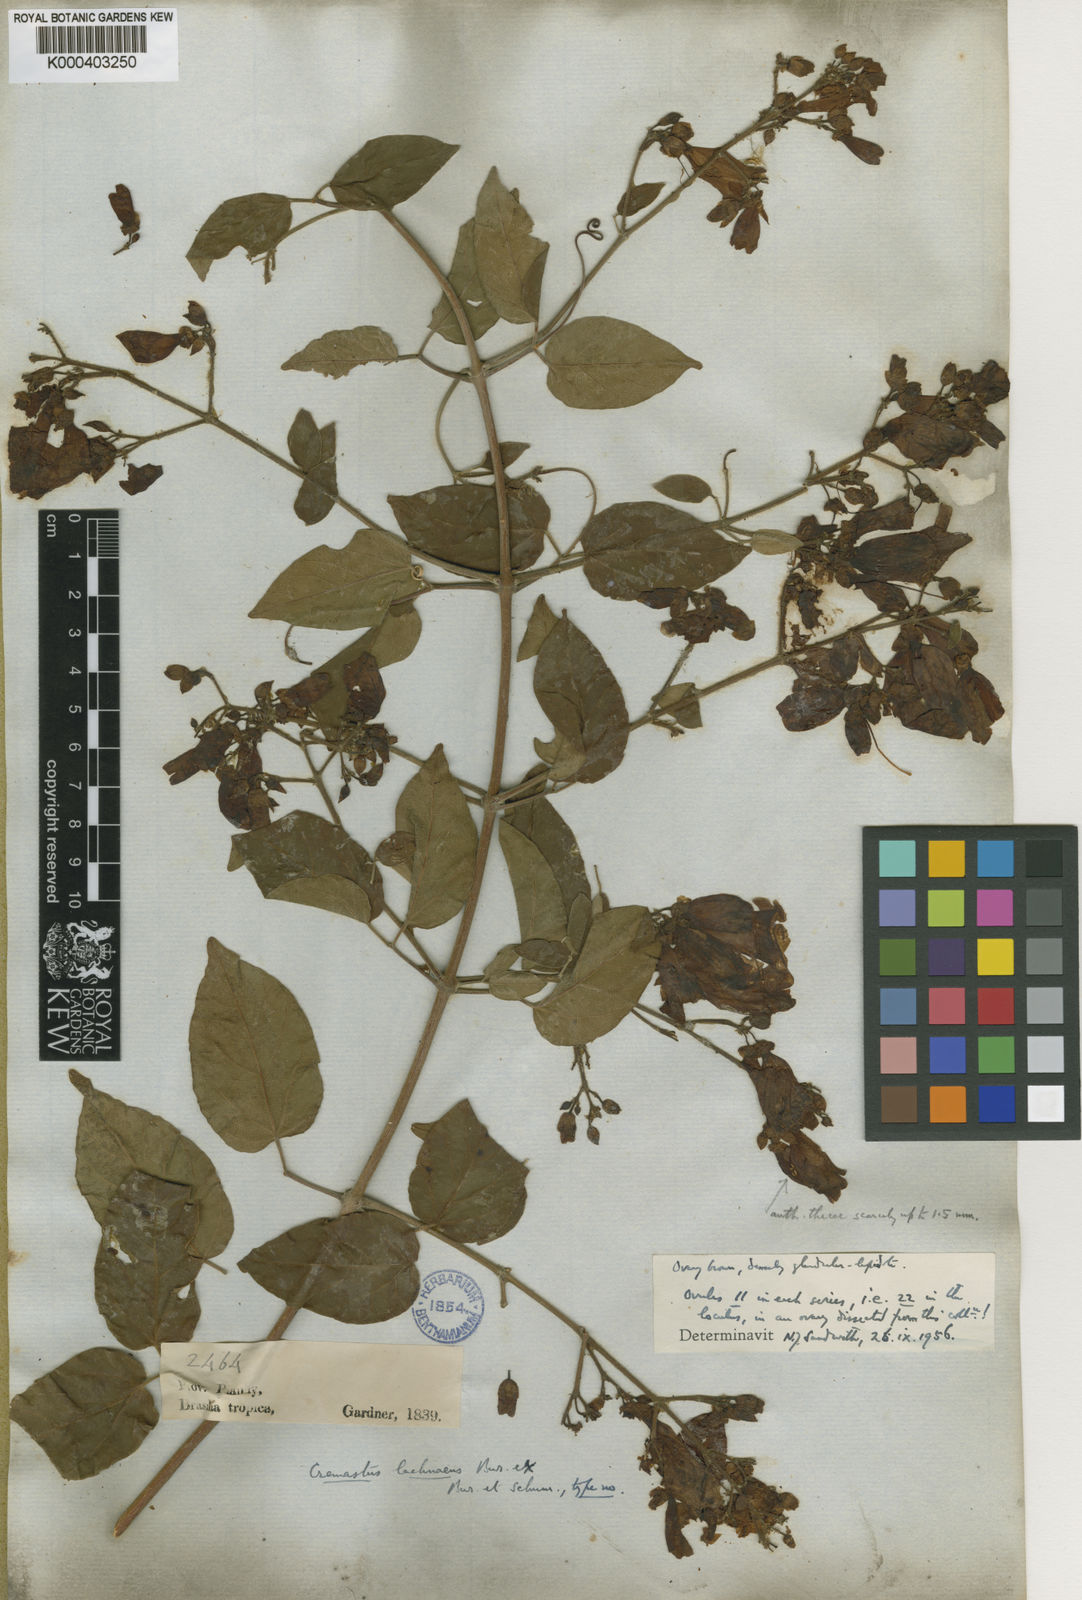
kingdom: Plantae
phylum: Tracheophyta
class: Magnoliopsida
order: Lamiales
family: Bignoniaceae
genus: Cuspidaria
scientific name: Cuspidaria lachnaea
